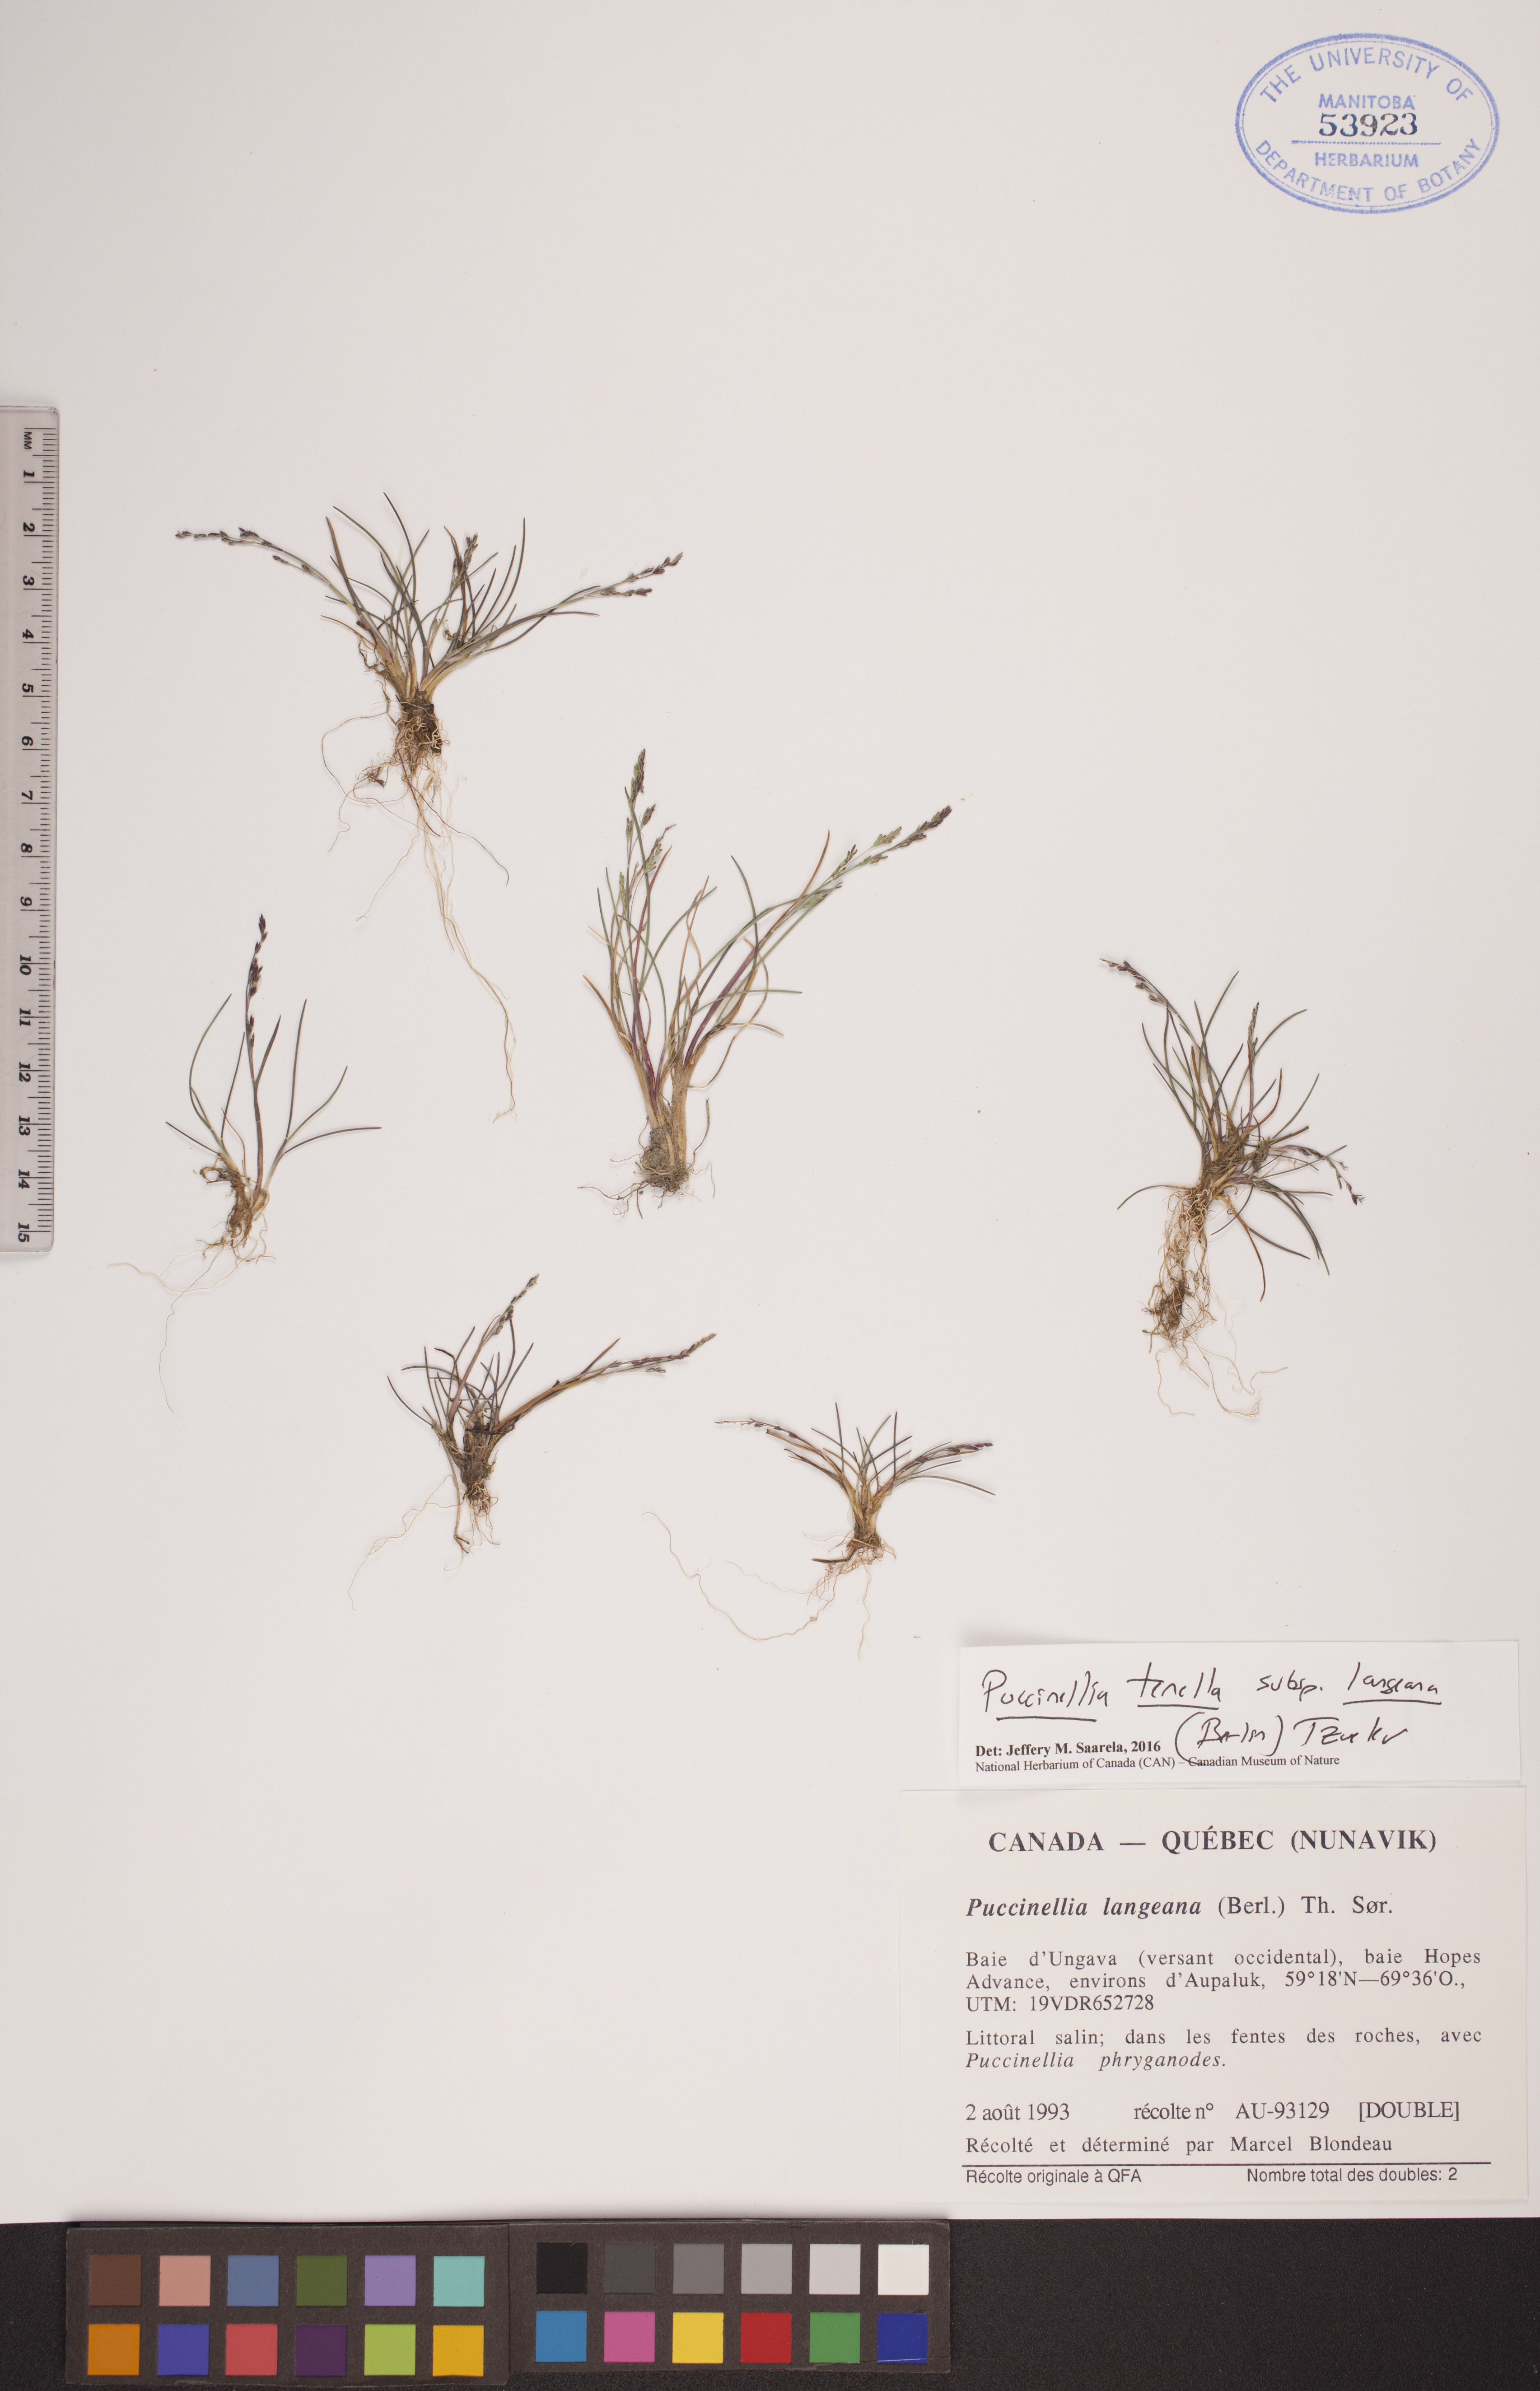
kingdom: Plantae
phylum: Tracheophyta
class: Liliopsida
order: Poales
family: Poaceae
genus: Puccinellia
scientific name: Puccinellia tenella
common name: Tundra alkaligrass
